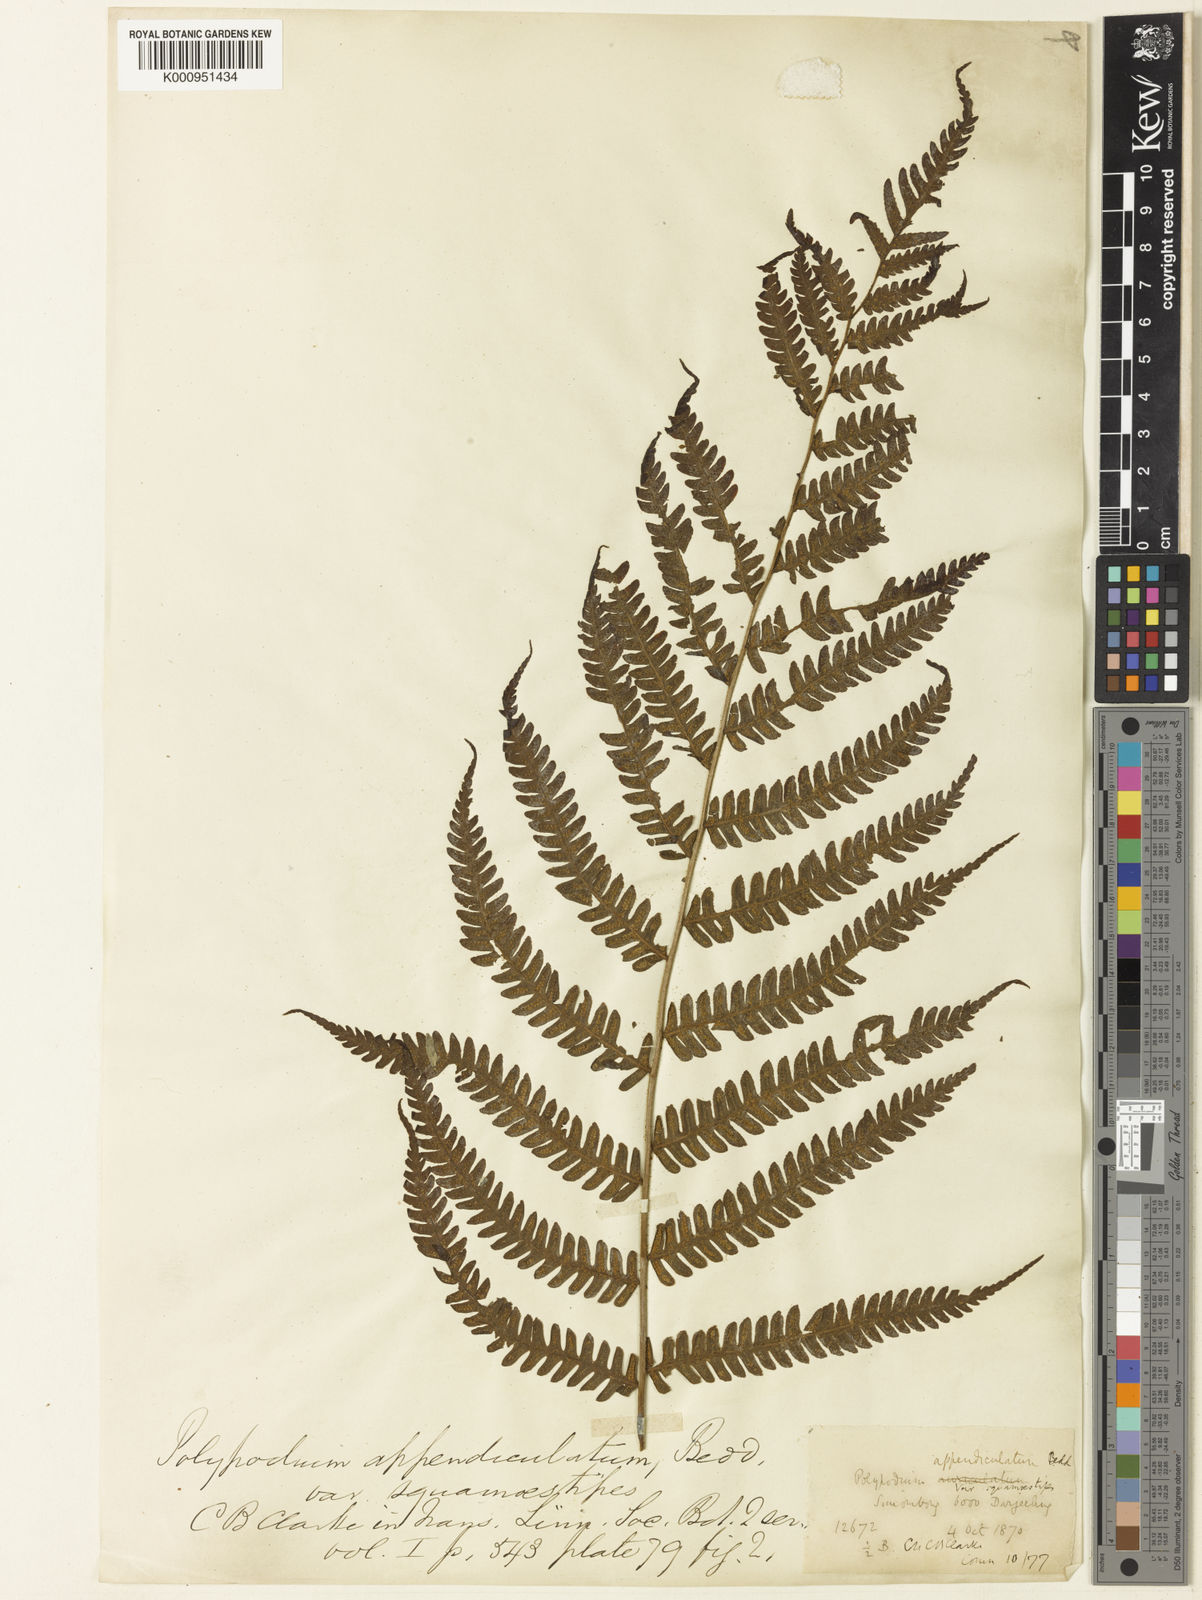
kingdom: Plantae
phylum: Tracheophyta
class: Polypodiopsida
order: Polypodiales
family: Thelypteridaceae
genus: Cyclogramma
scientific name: Cyclogramma
